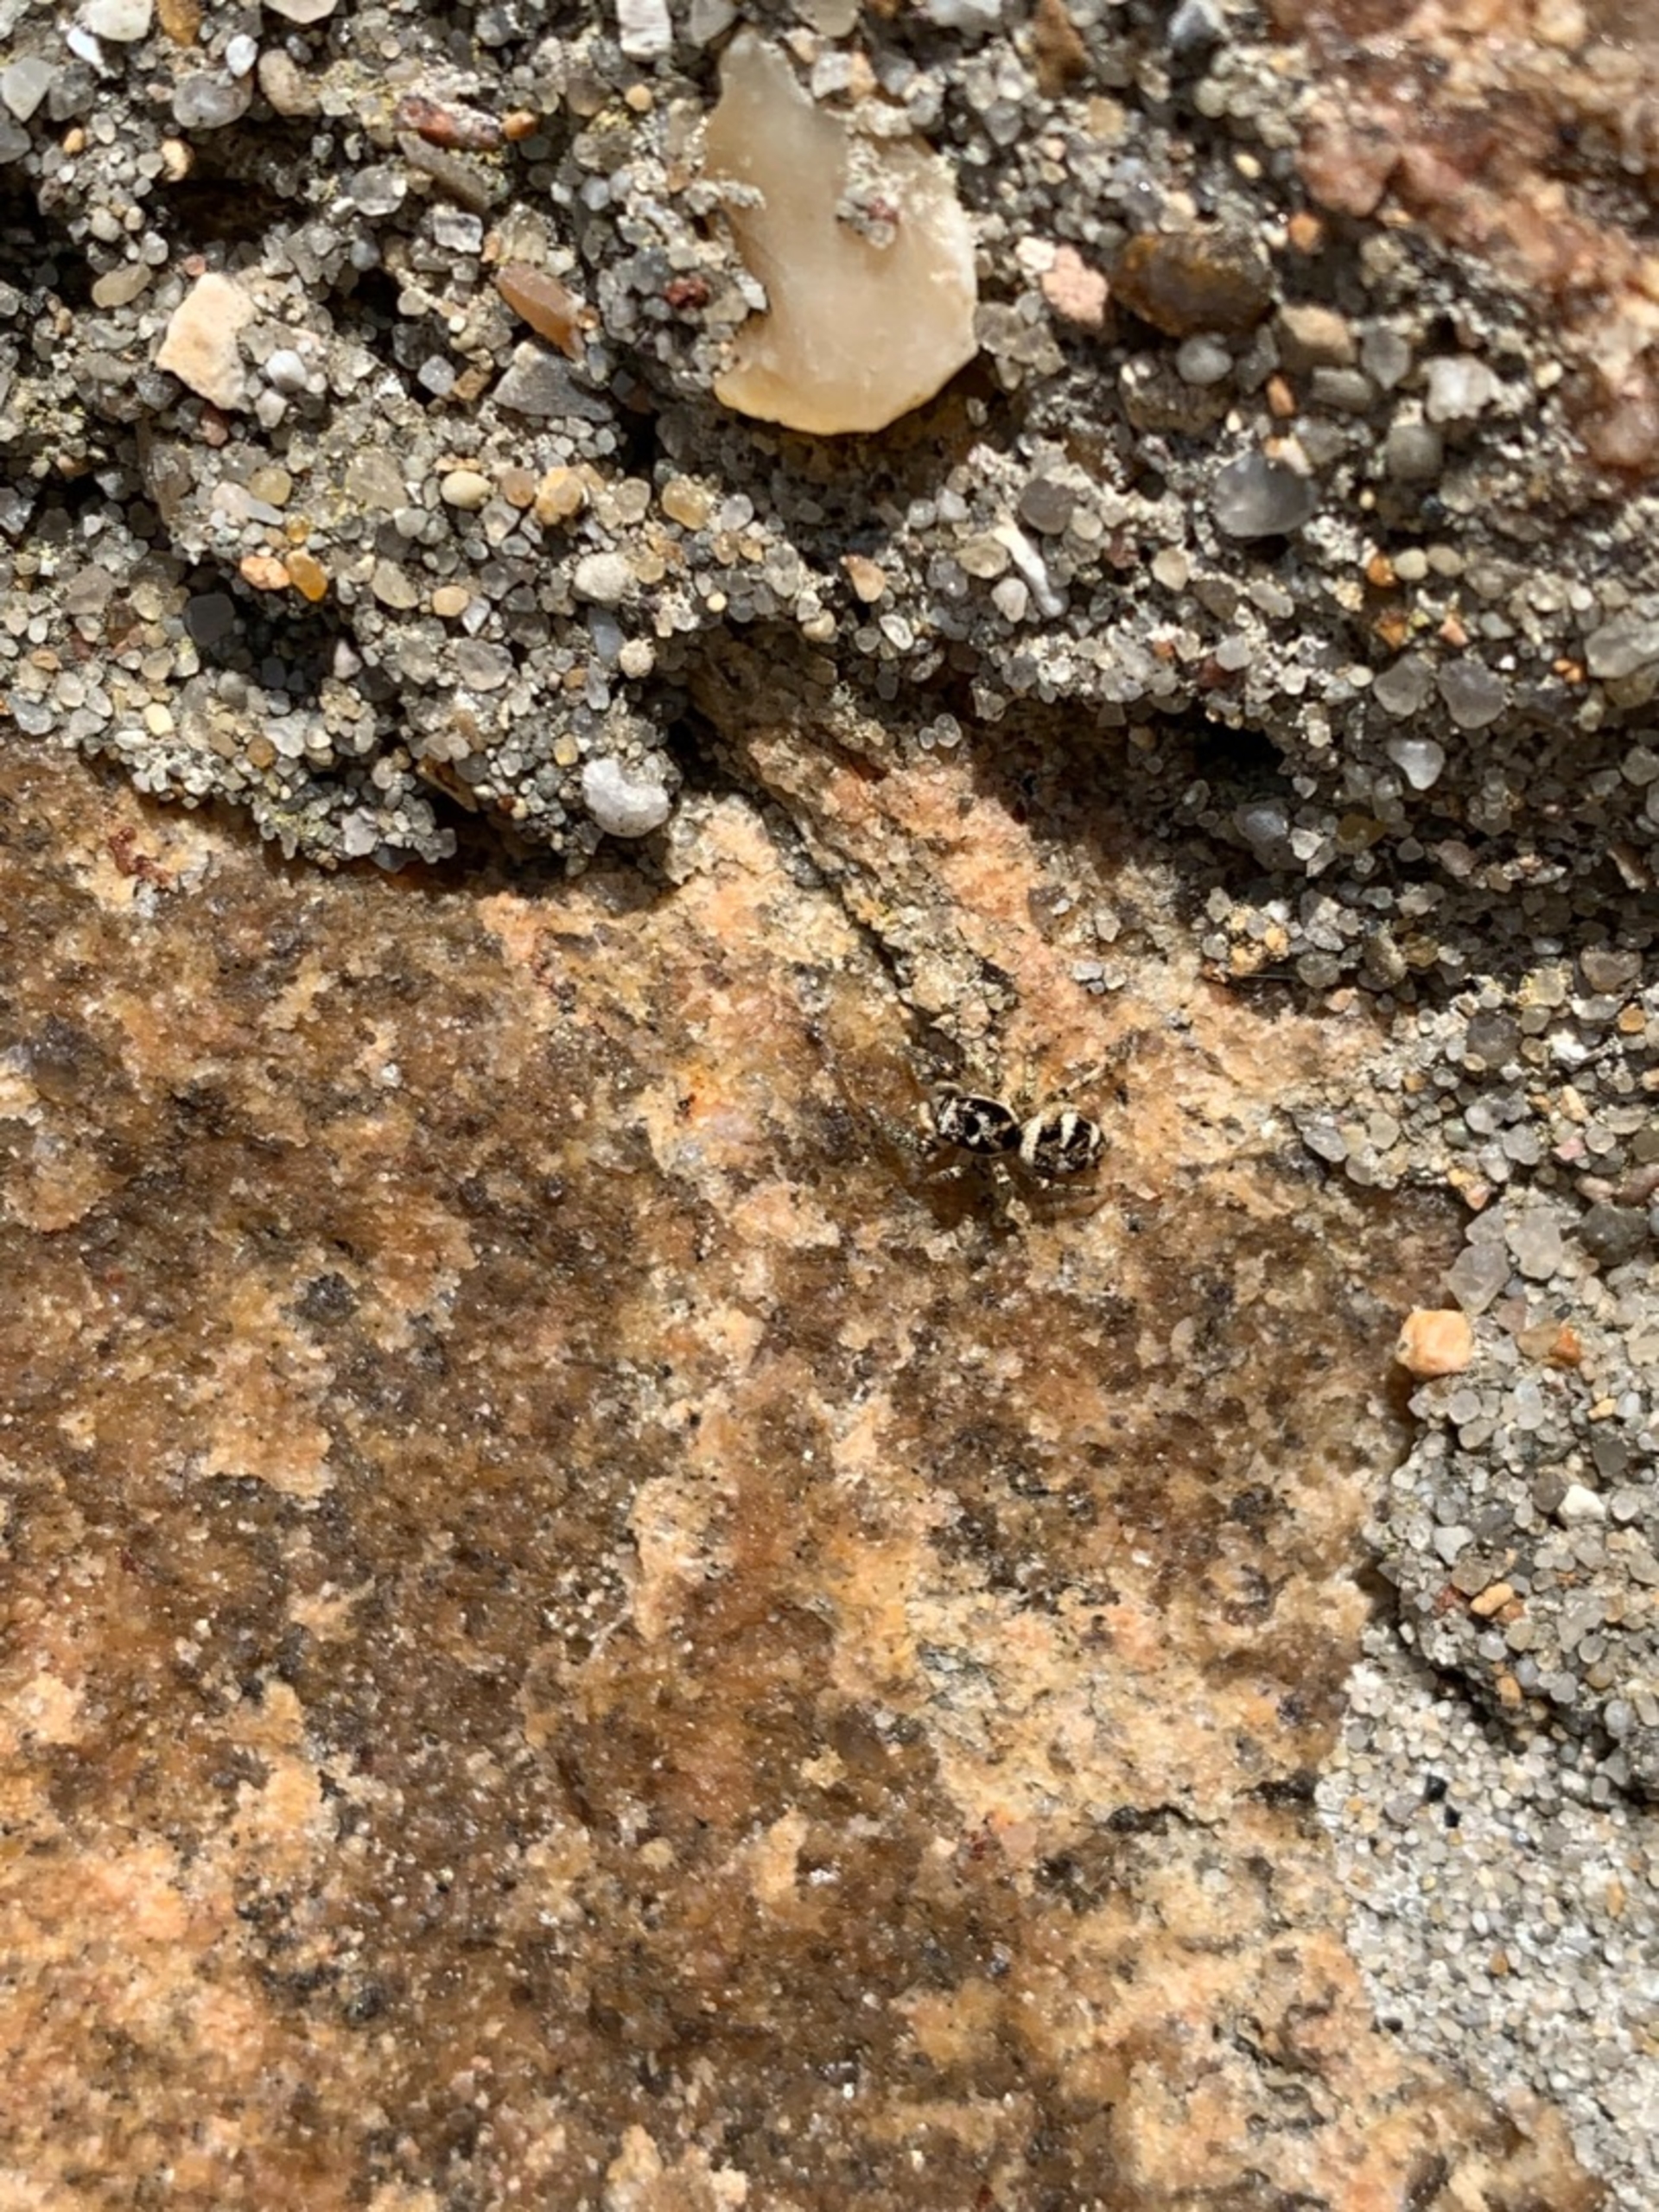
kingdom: Animalia
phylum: Arthropoda
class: Arachnida
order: Araneae
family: Salticidae
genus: Salticus
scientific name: Salticus scenicus
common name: Almindelig zebraedderkop
